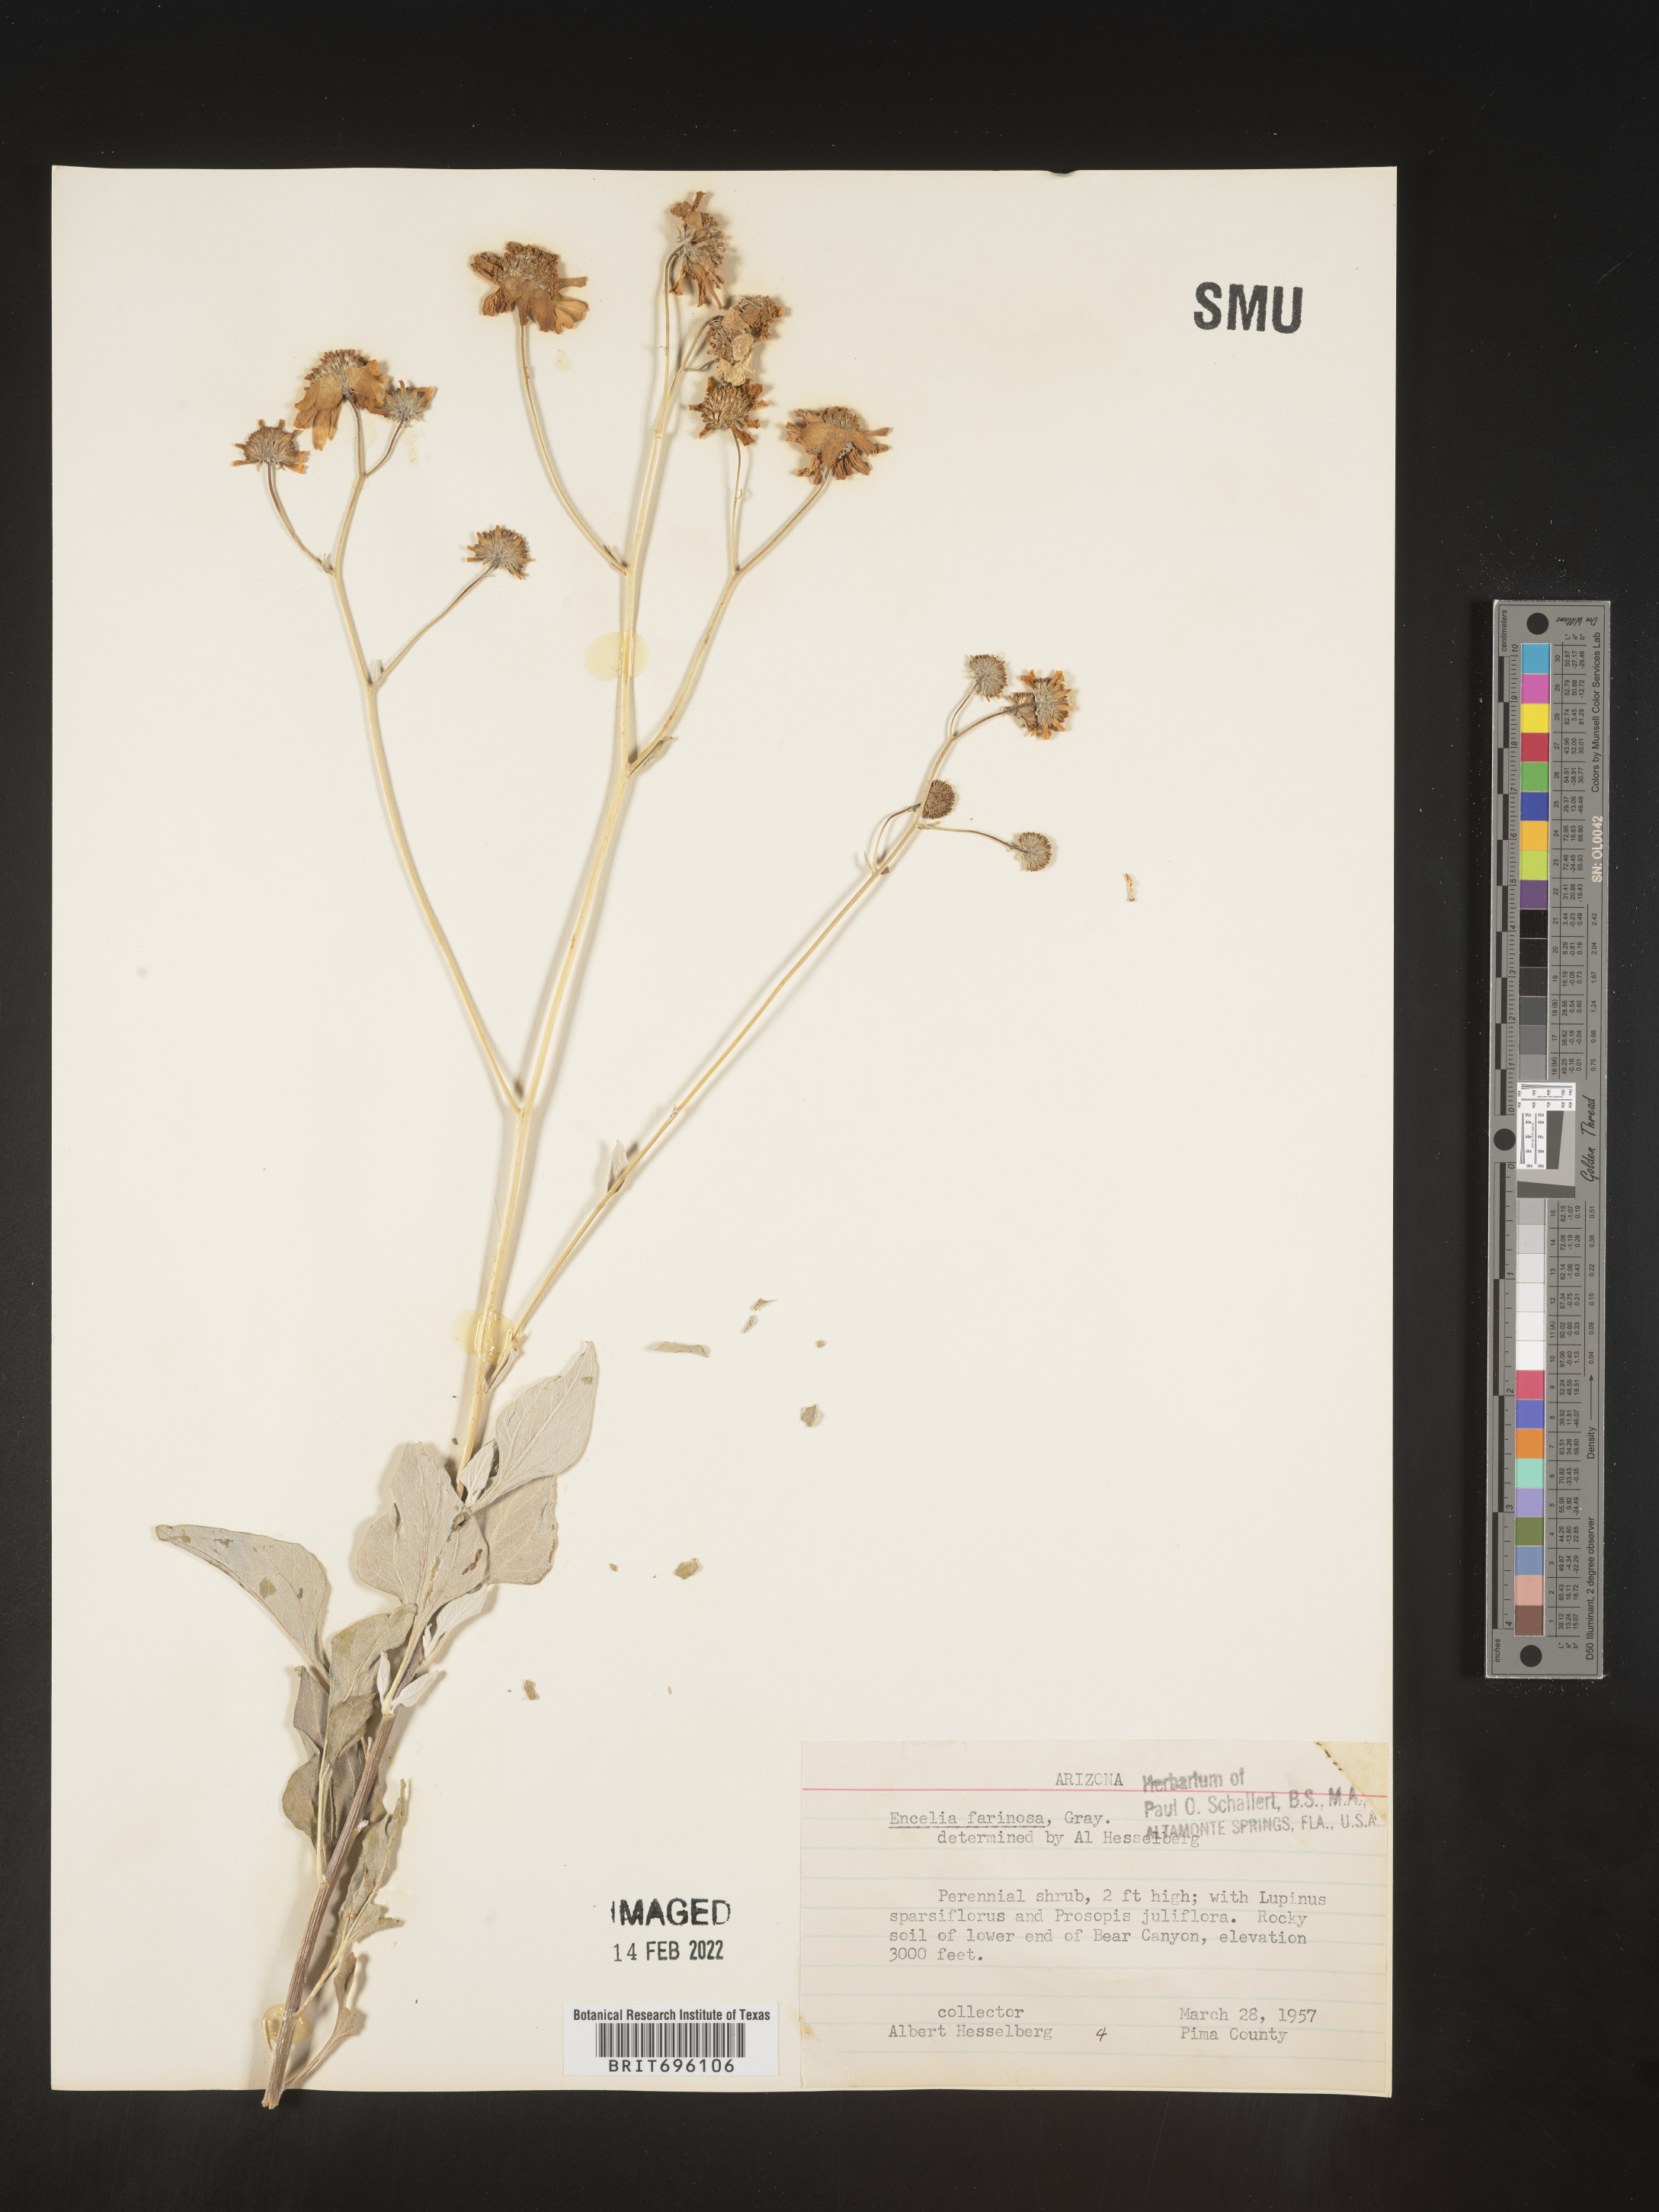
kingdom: Plantae
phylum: Tracheophyta
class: Magnoliopsida
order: Asterales
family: Asteraceae
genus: Encelia
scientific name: Encelia farinosa
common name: Brittlebush
